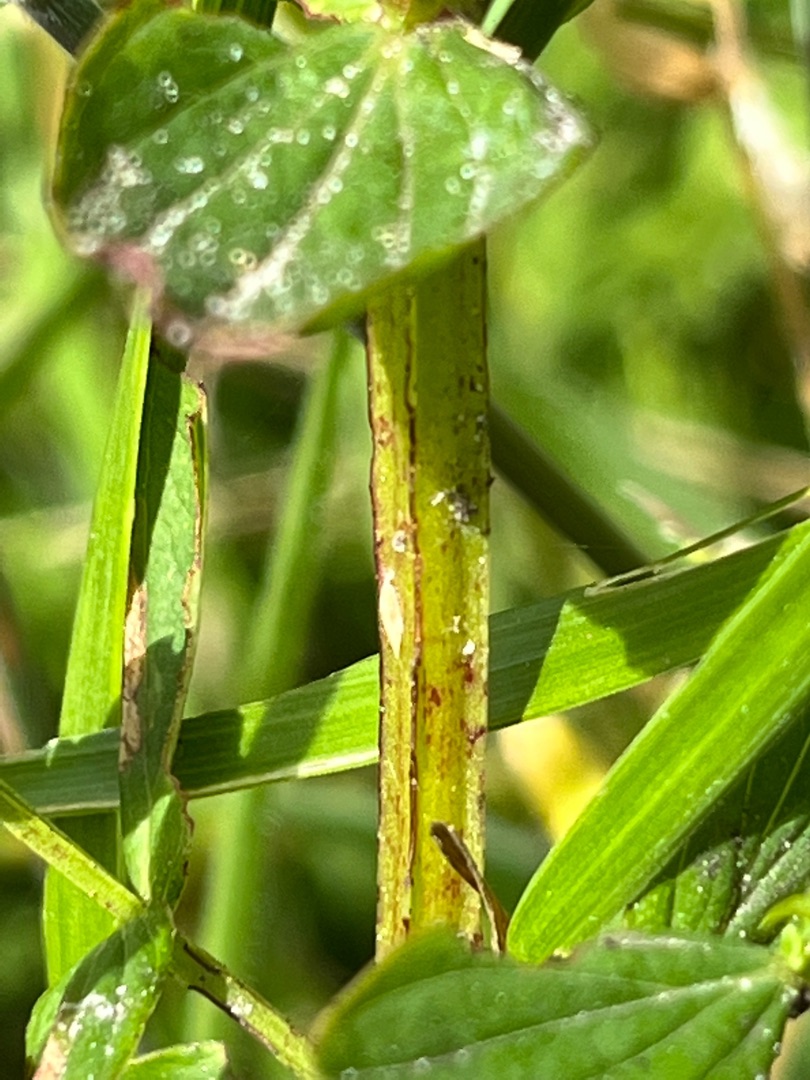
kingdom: Plantae
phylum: Tracheophyta
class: Magnoliopsida
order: Malpighiales
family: Hypericaceae
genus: Hypericum
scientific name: Hypericum tetrapterum
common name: Vinget perikon
